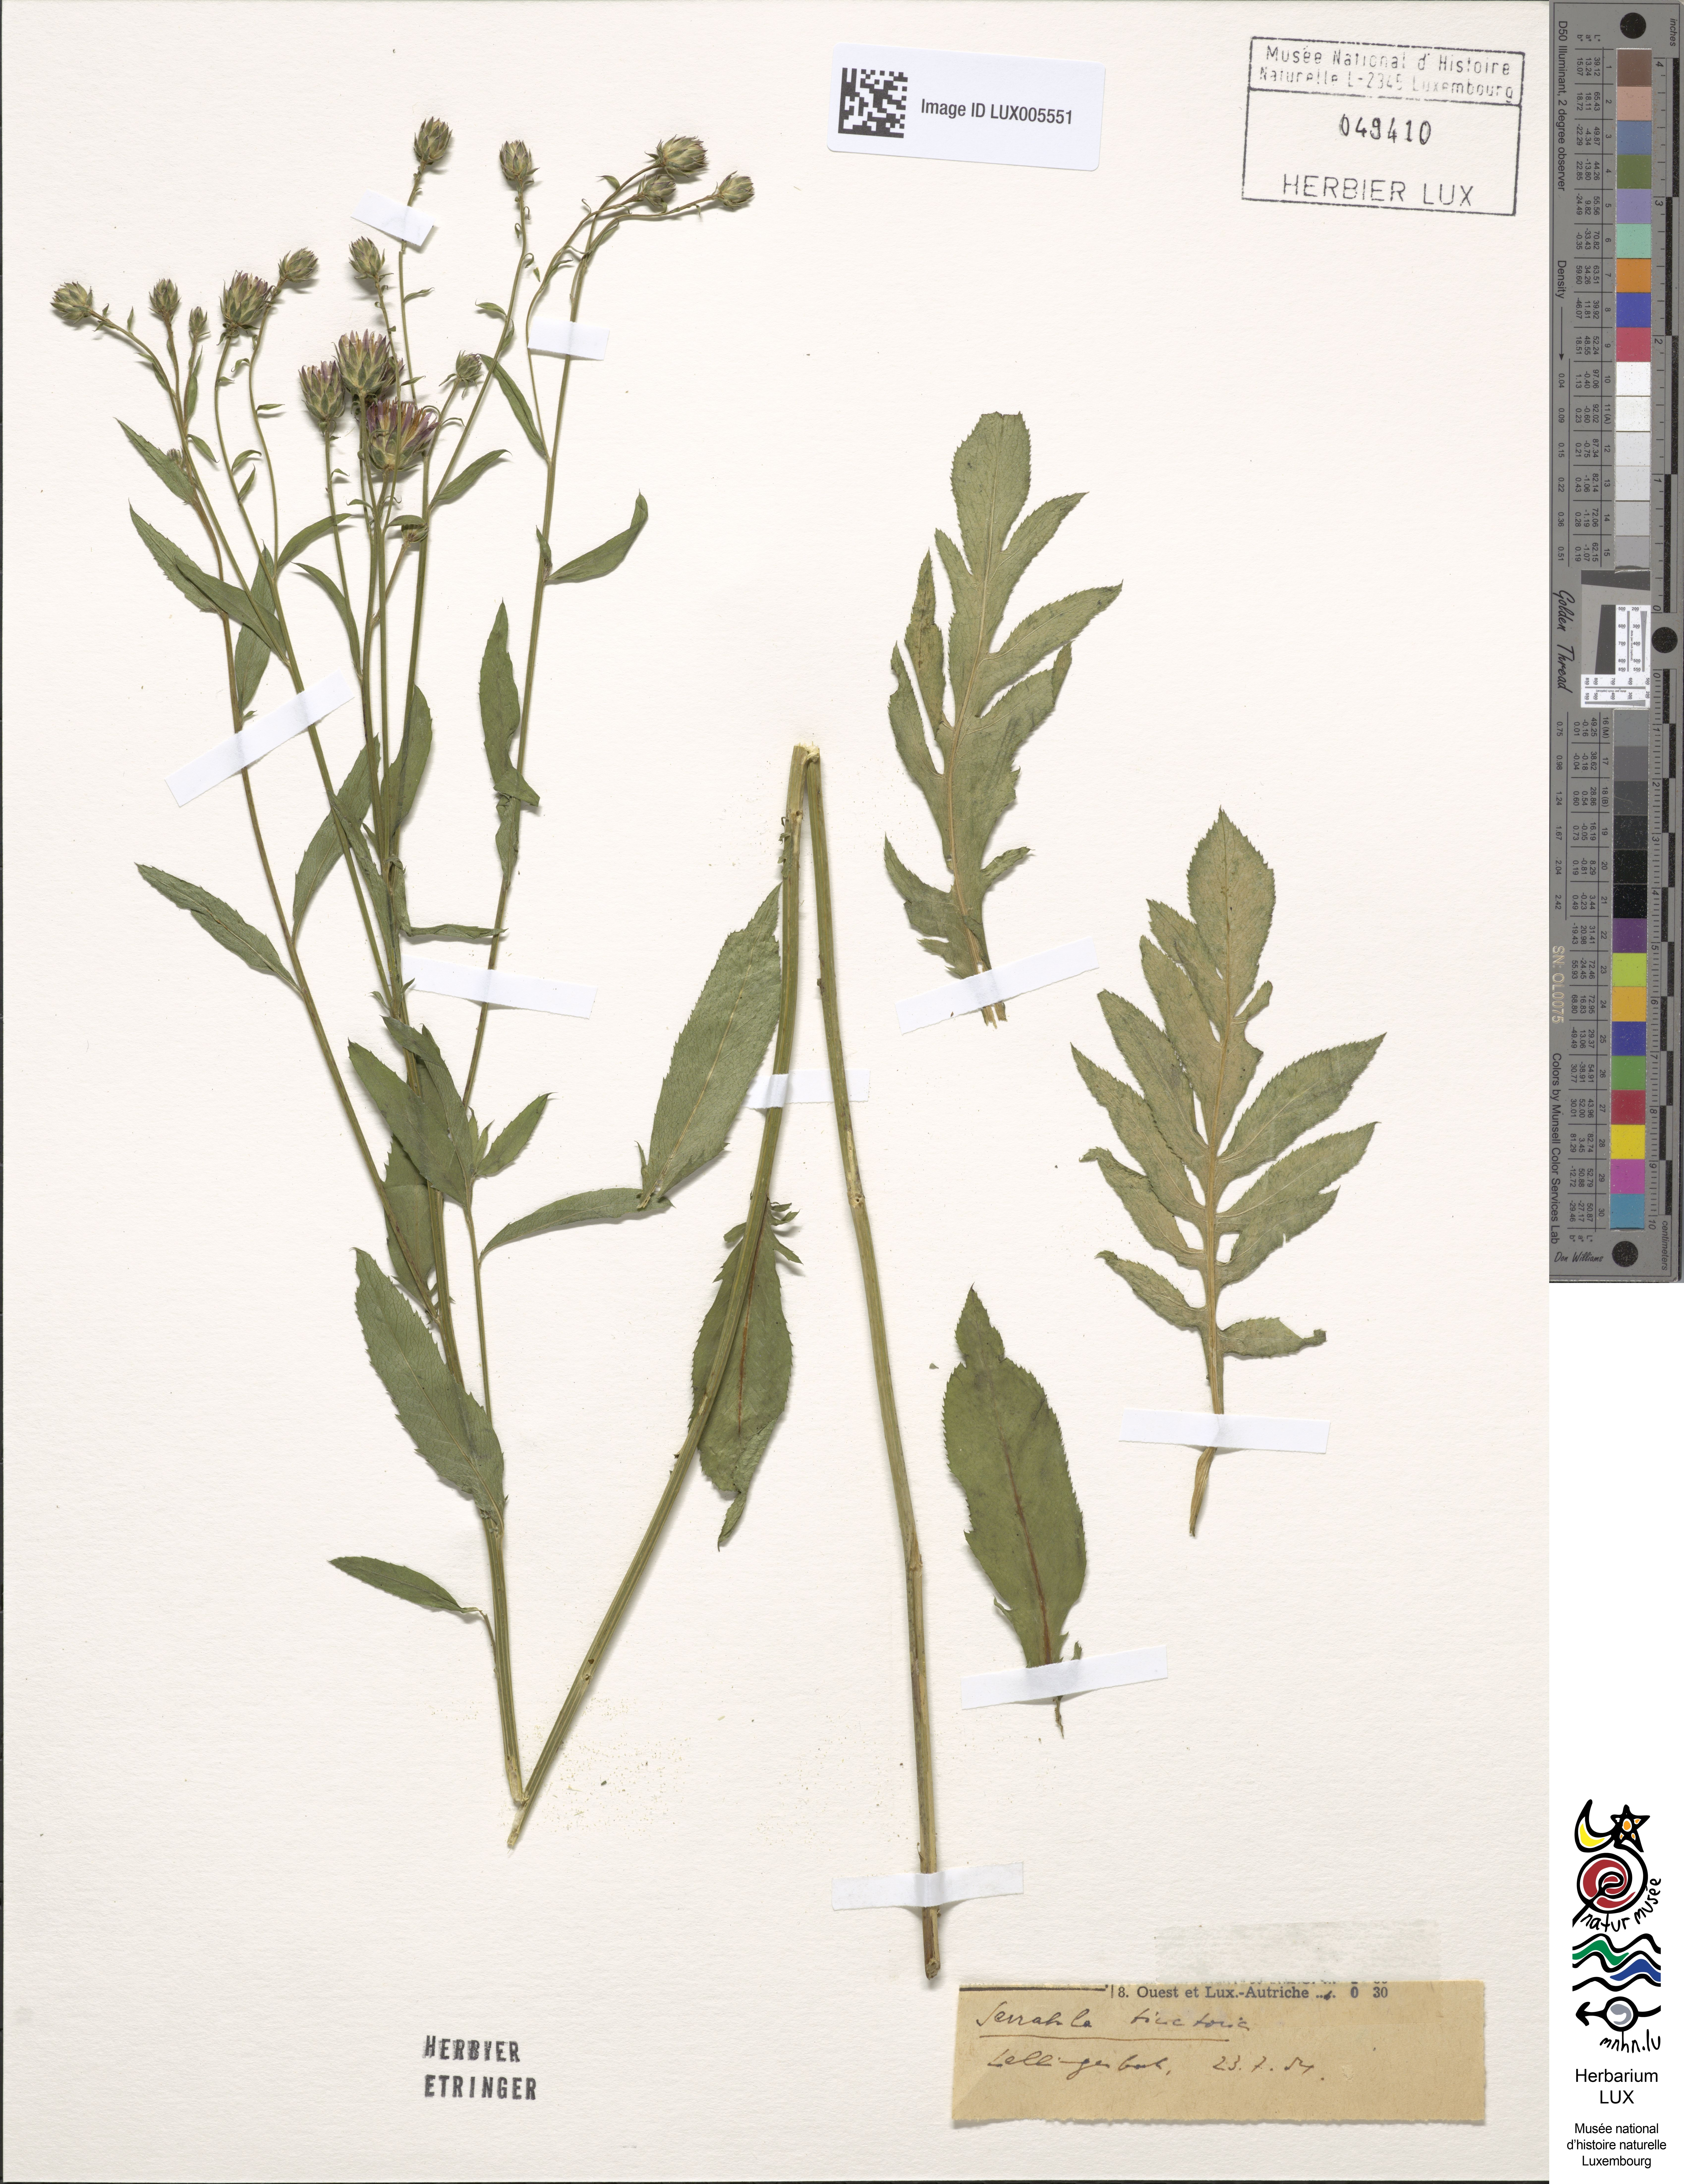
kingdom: Fungi
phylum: Ascomycota
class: Leotiomycetes
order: Helotiales
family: Dermateaceae
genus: Pezicula
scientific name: Pezicula coryli
